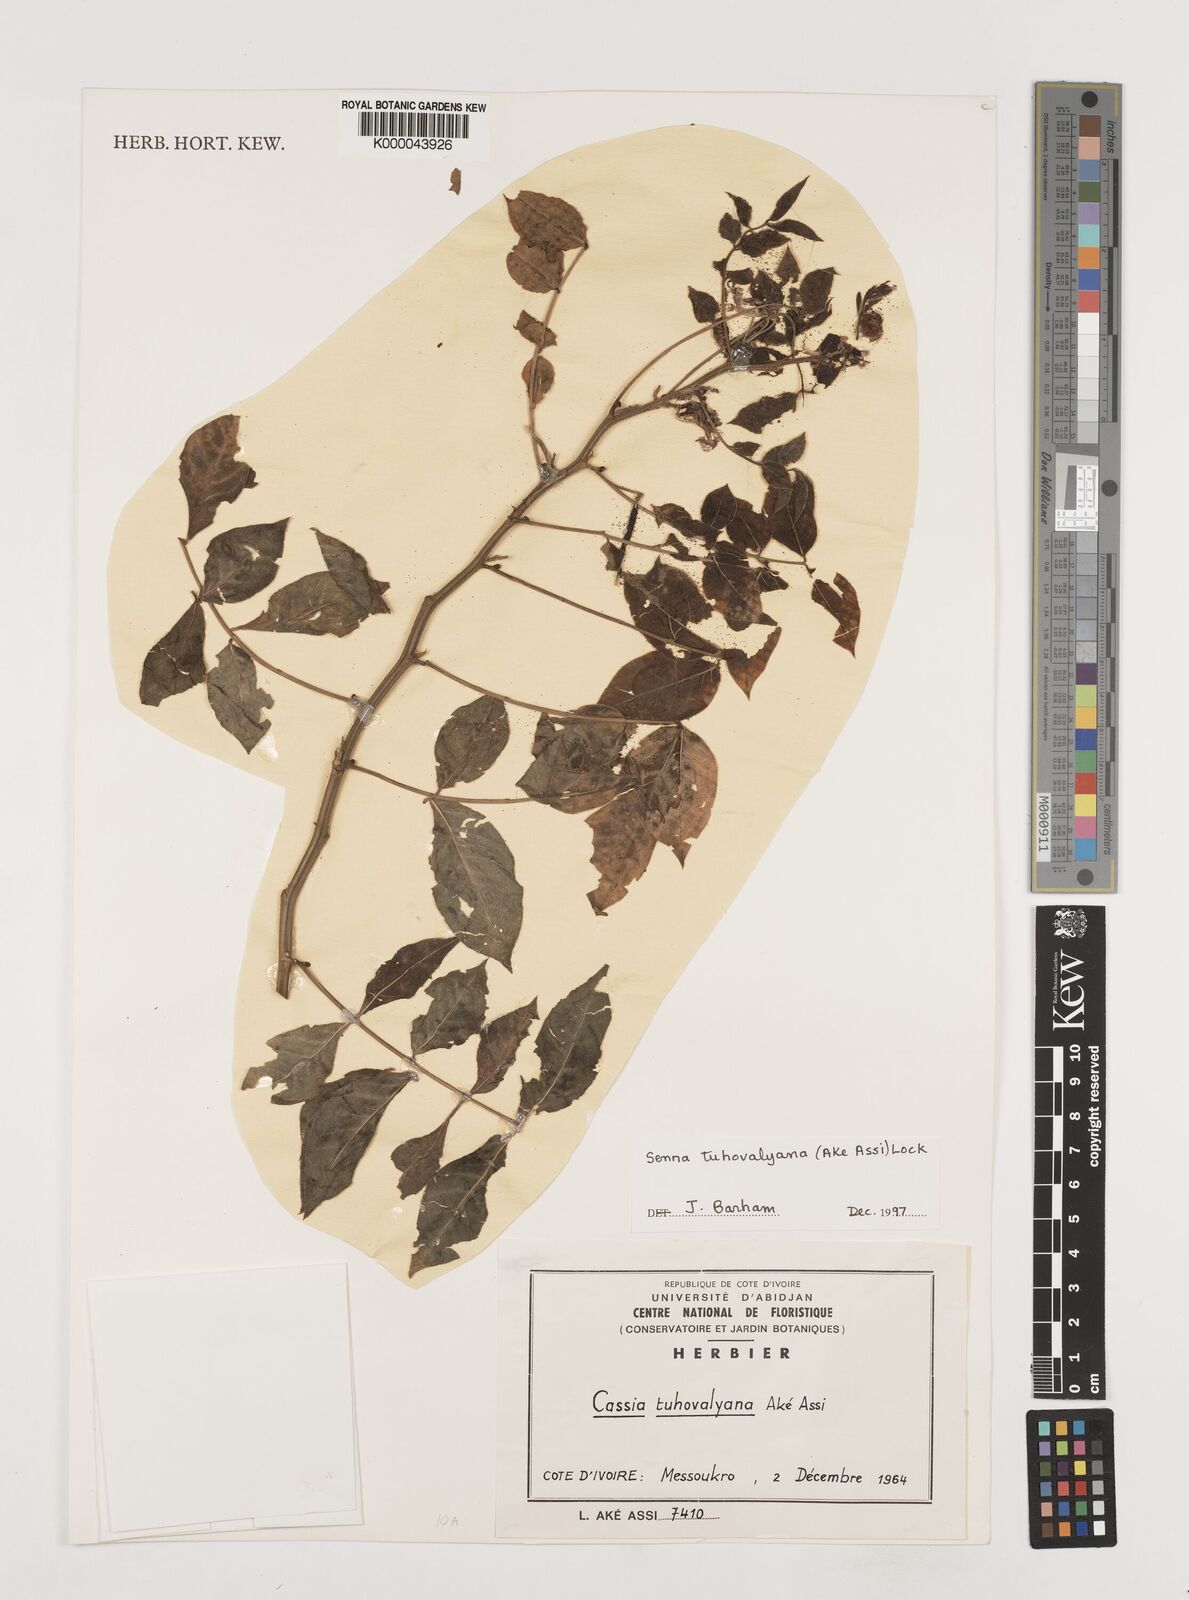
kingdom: Plantae
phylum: Tracheophyta
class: Magnoliopsida
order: Fabales
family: Fabaceae
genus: Senna
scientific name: Senna
